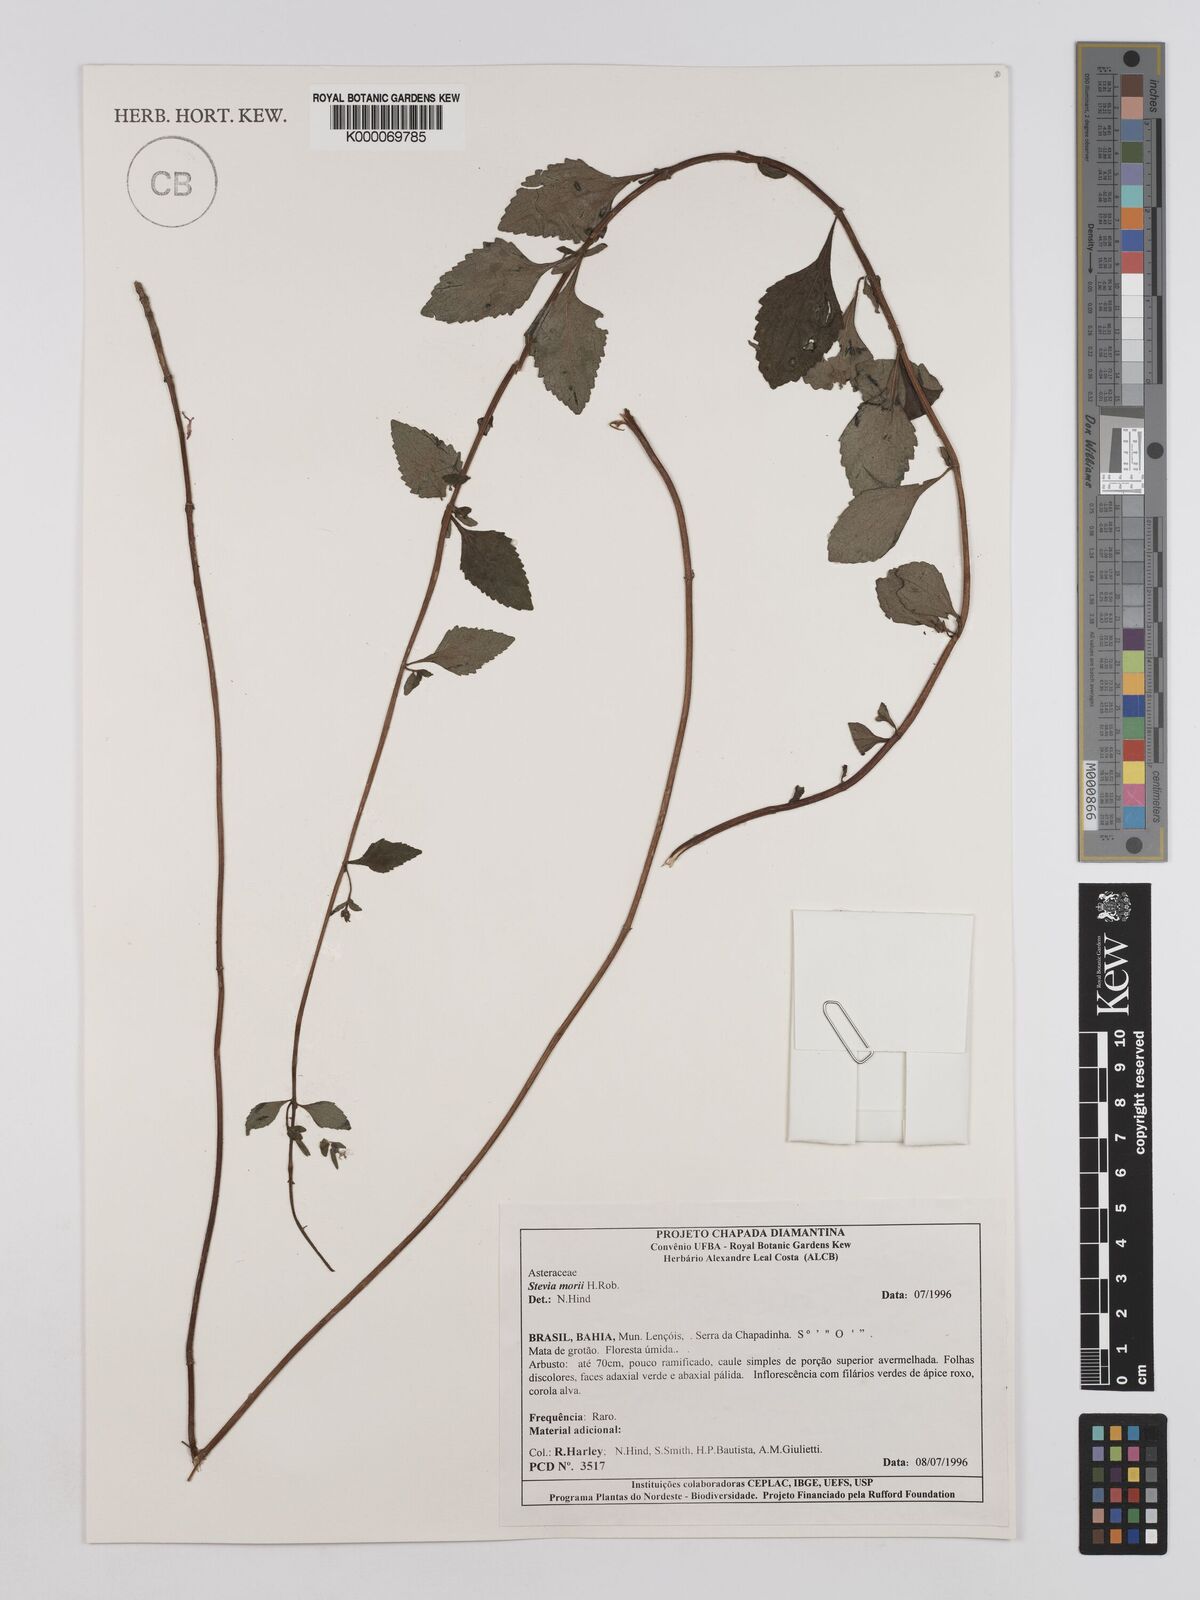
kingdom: Plantae
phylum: Tracheophyta
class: Magnoliopsida
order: Asterales
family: Asteraceae
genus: Stevia
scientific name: Stevia morii
